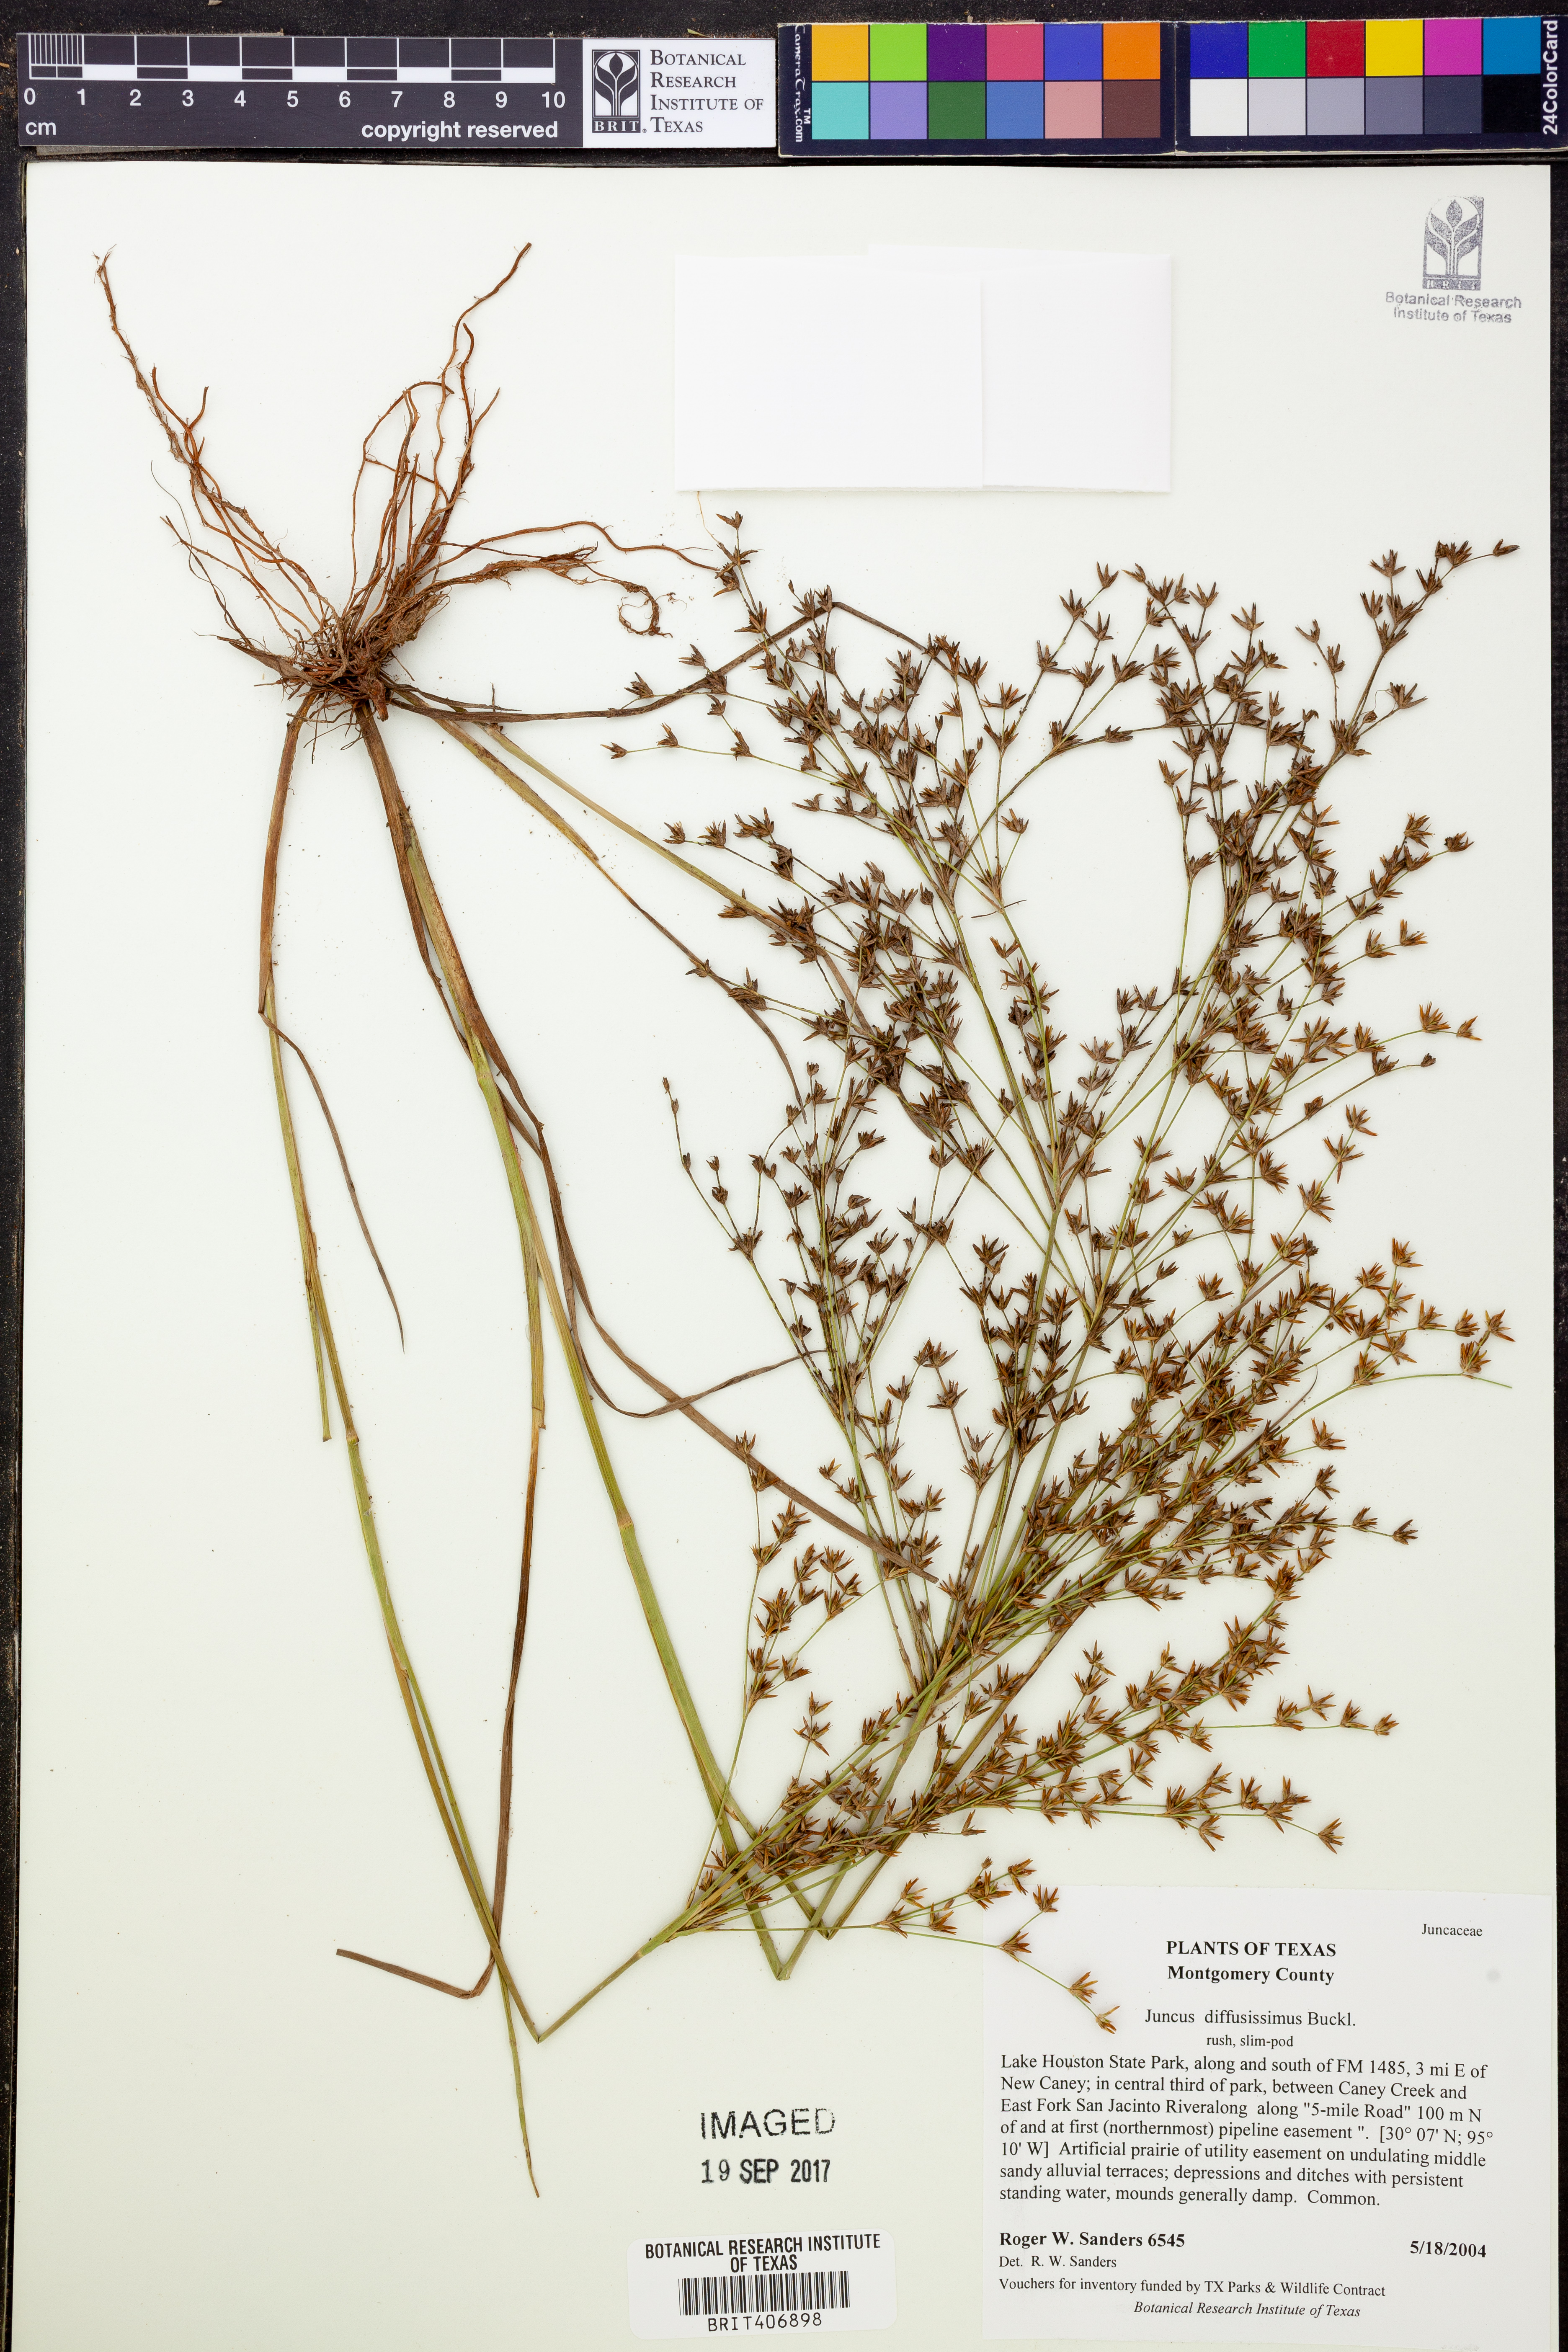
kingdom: Plantae
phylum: Tracheophyta
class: Liliopsida
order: Poales
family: Juncaceae
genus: Juncus
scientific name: Juncus diffusissimus
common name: Slimpod rush
